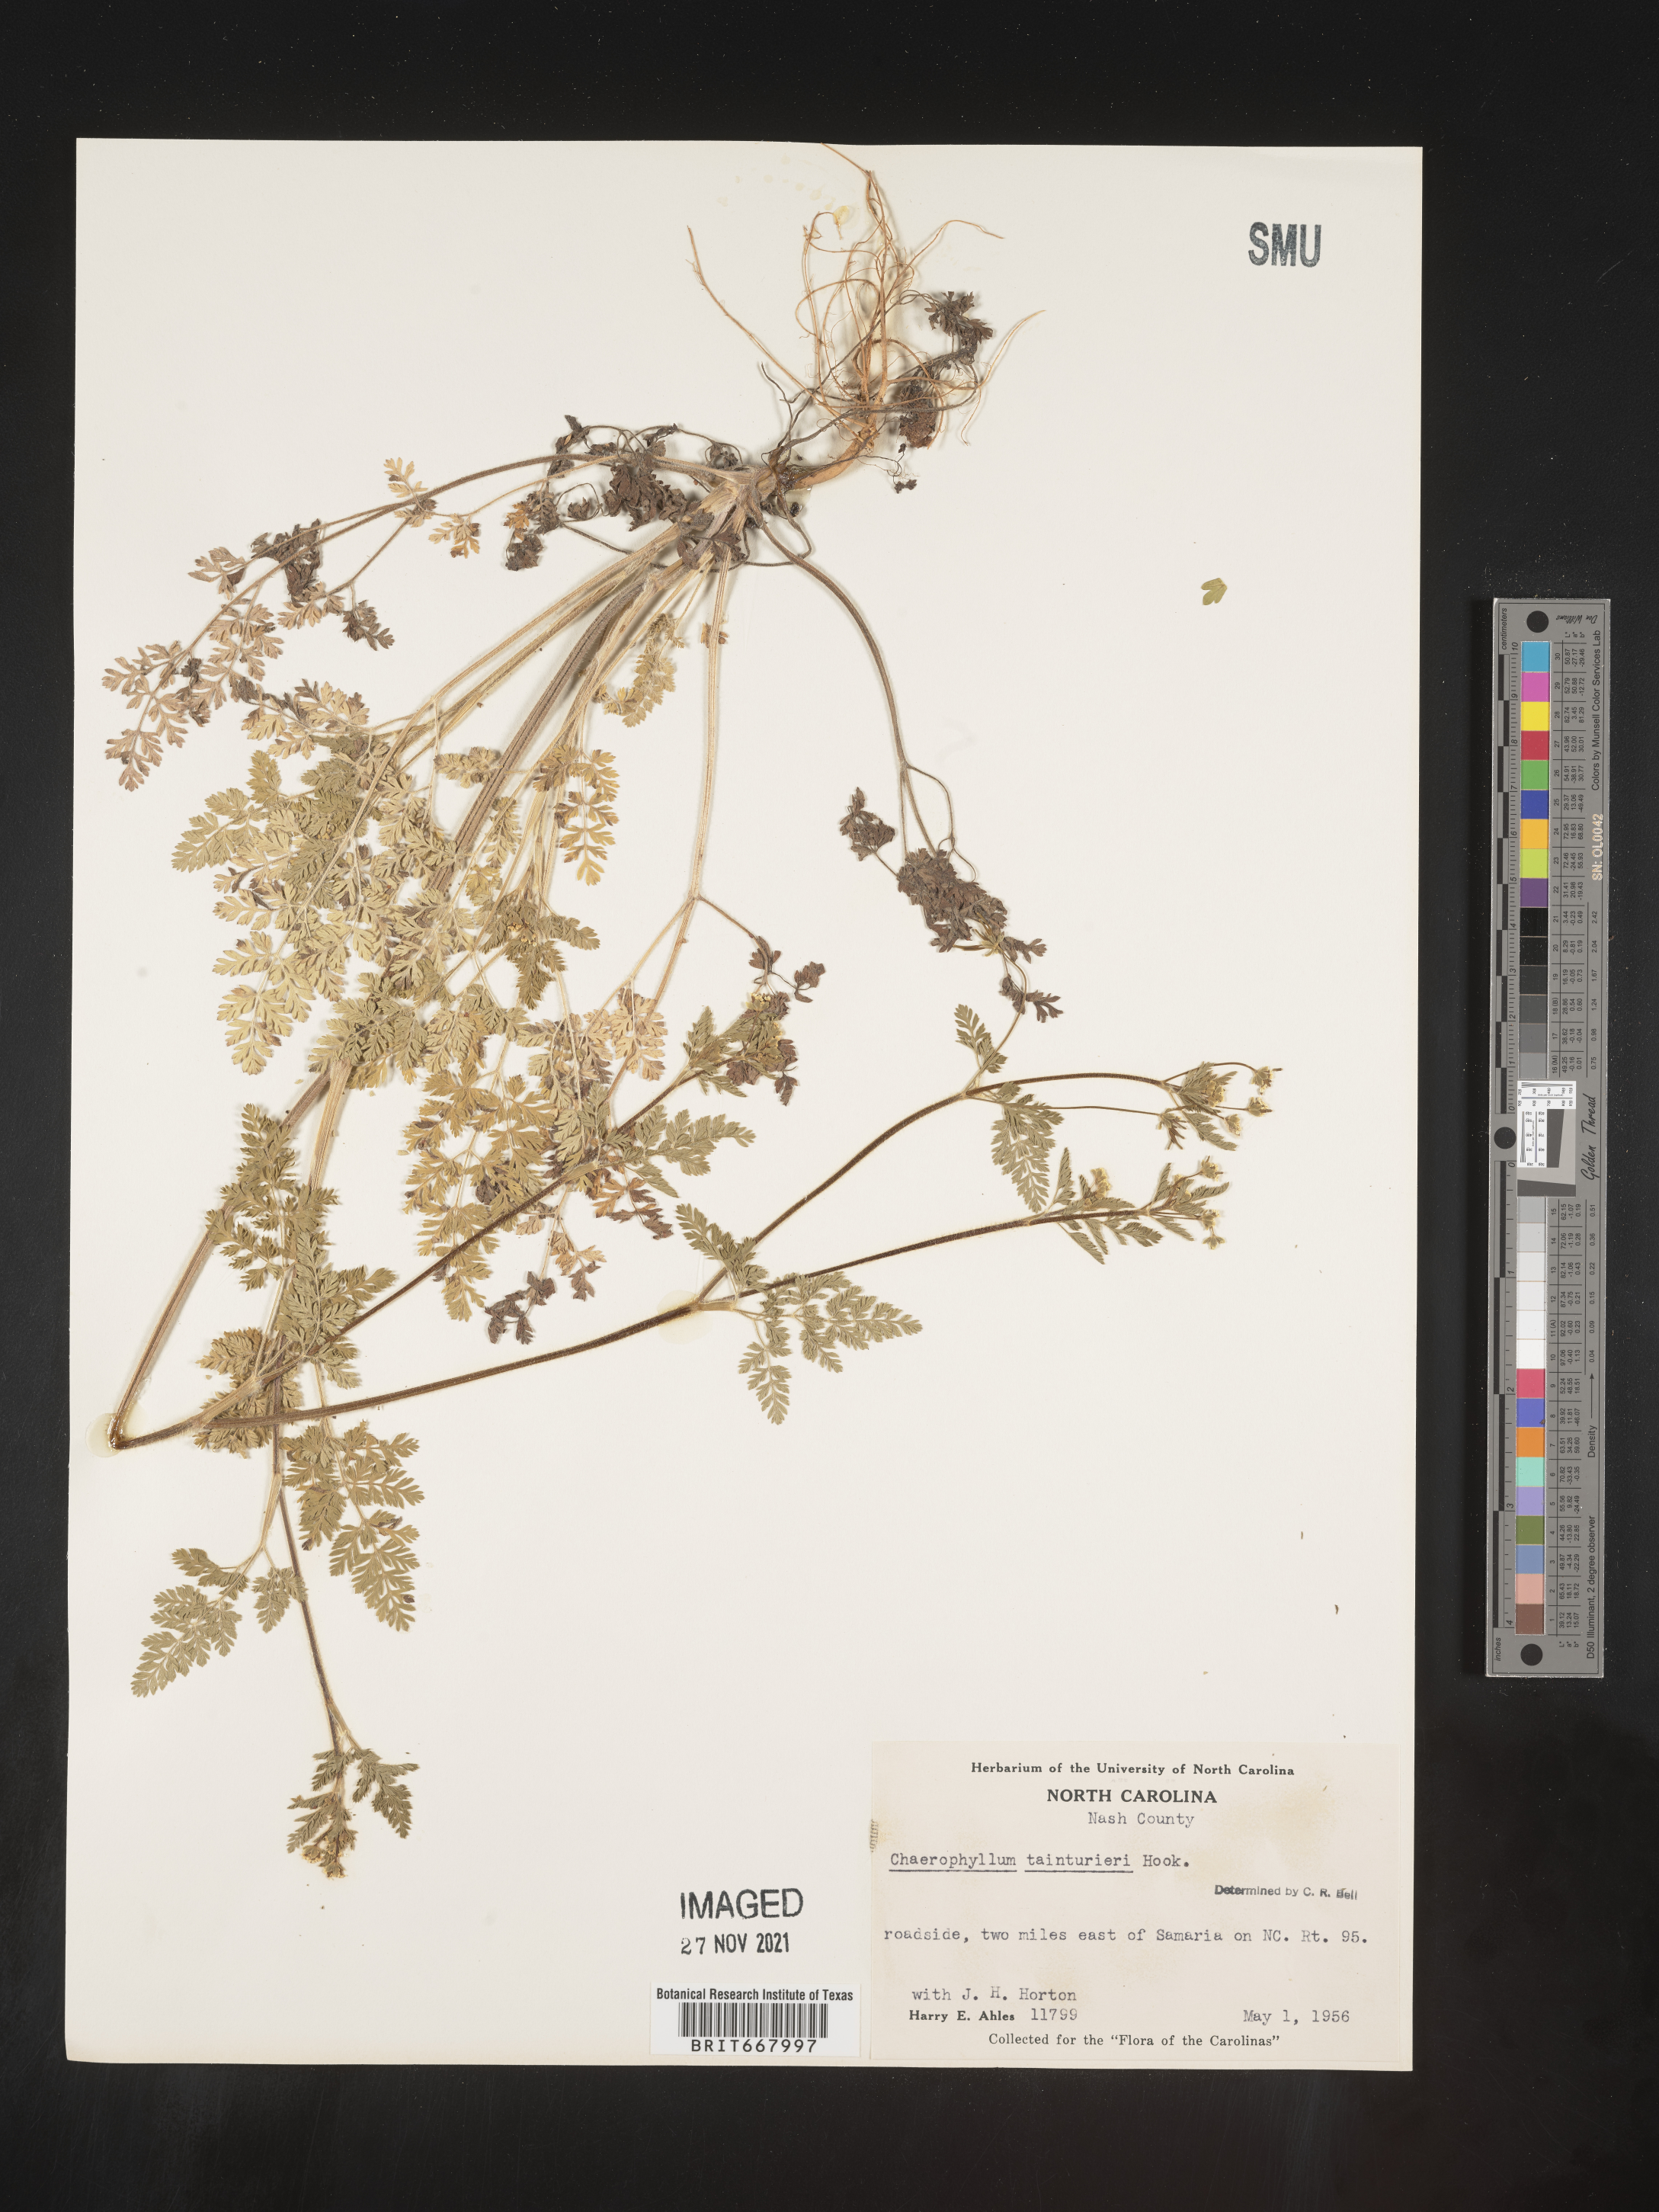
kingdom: Plantae
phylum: Tracheophyta
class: Magnoliopsida
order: Apiales
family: Apiaceae
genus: Chaerophyllum
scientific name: Chaerophyllum tainturieri
